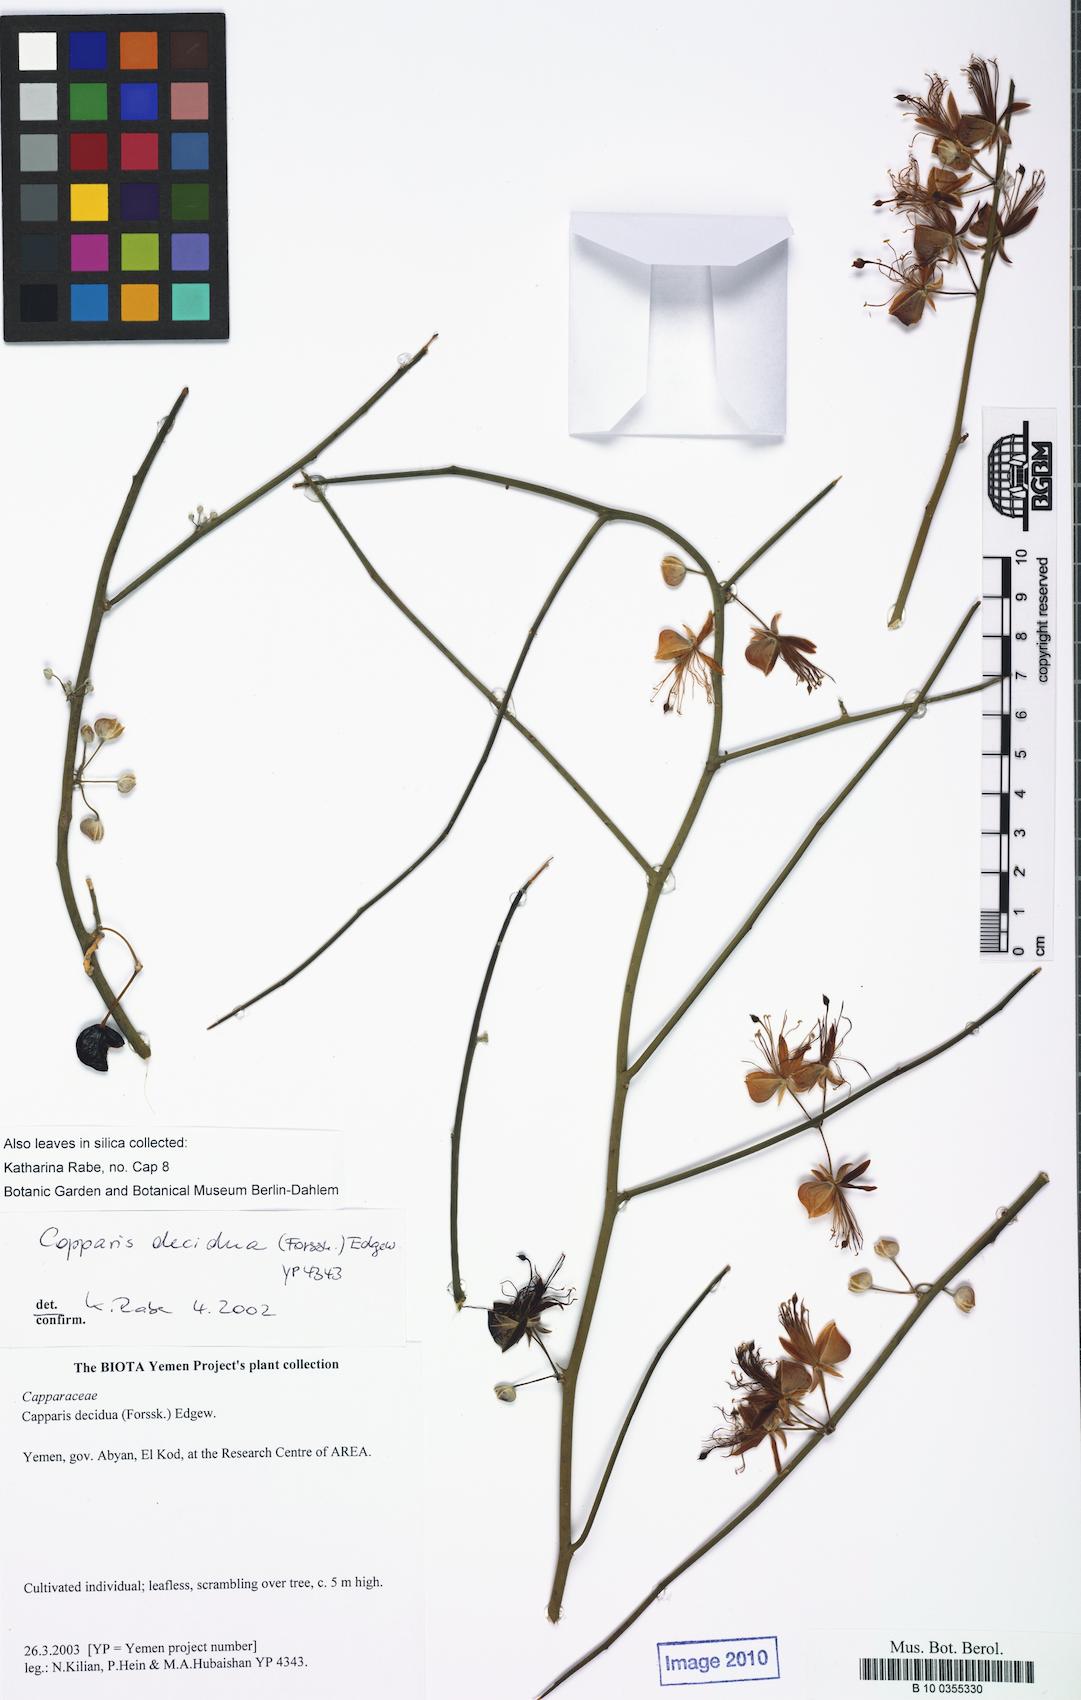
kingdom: Plantae
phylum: Tracheophyta
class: Magnoliopsida
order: Brassicales
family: Capparaceae
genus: Capparis
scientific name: Capparis decidua
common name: Sodada
